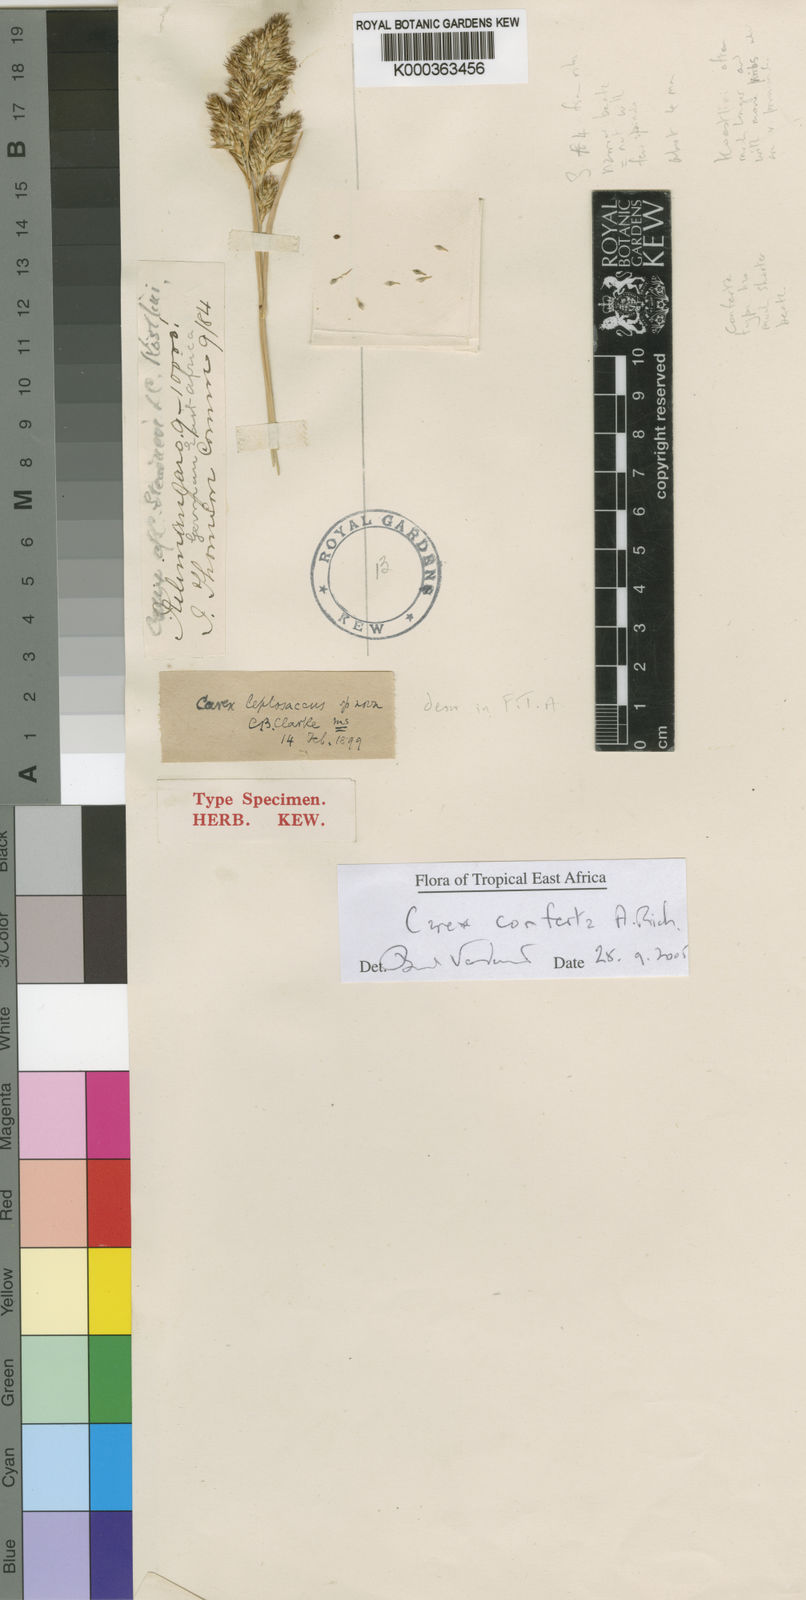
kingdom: Plantae
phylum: Tracheophyta
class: Liliopsida
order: Poales
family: Cyperaceae
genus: Carex
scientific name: Carex conferta
